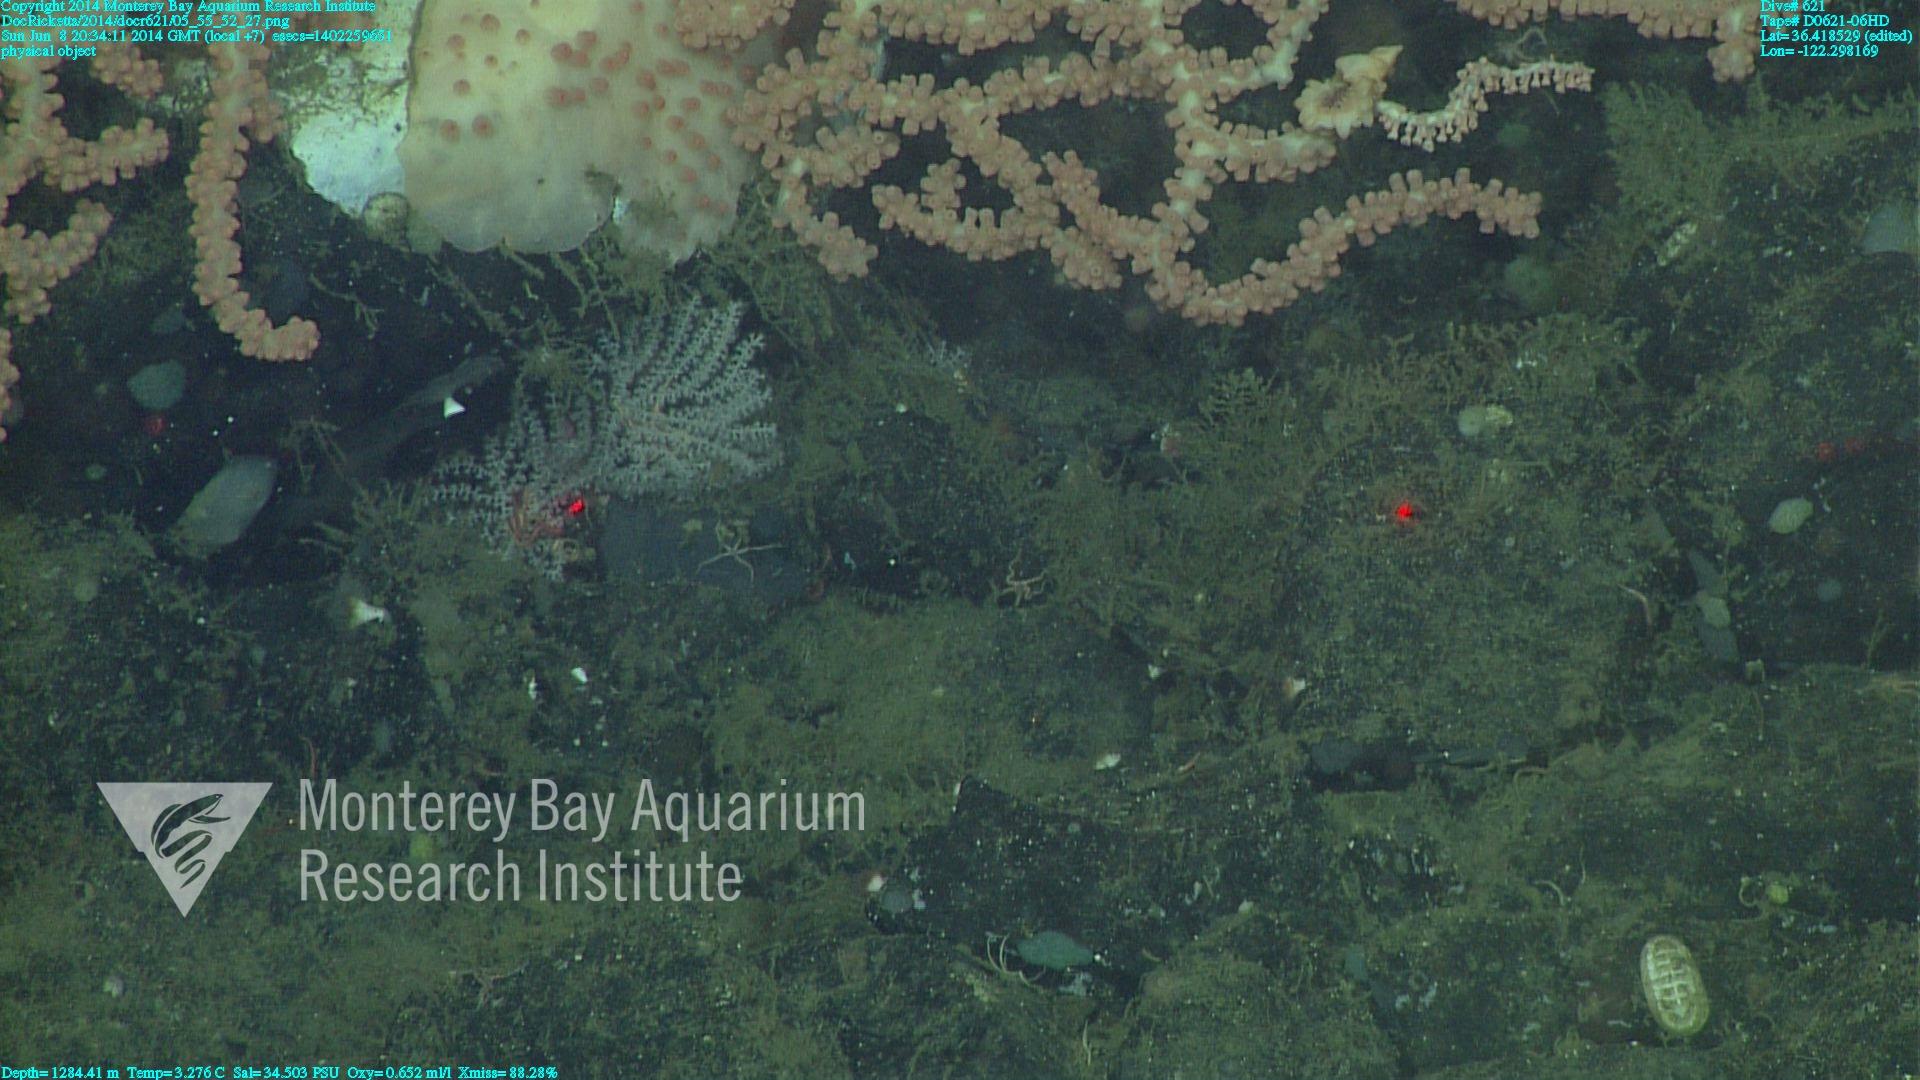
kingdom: Animalia
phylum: Cnidaria
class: Anthozoa
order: Scleralcyonacea
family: Keratoisididae
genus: Keratoisis
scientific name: Keratoisis
